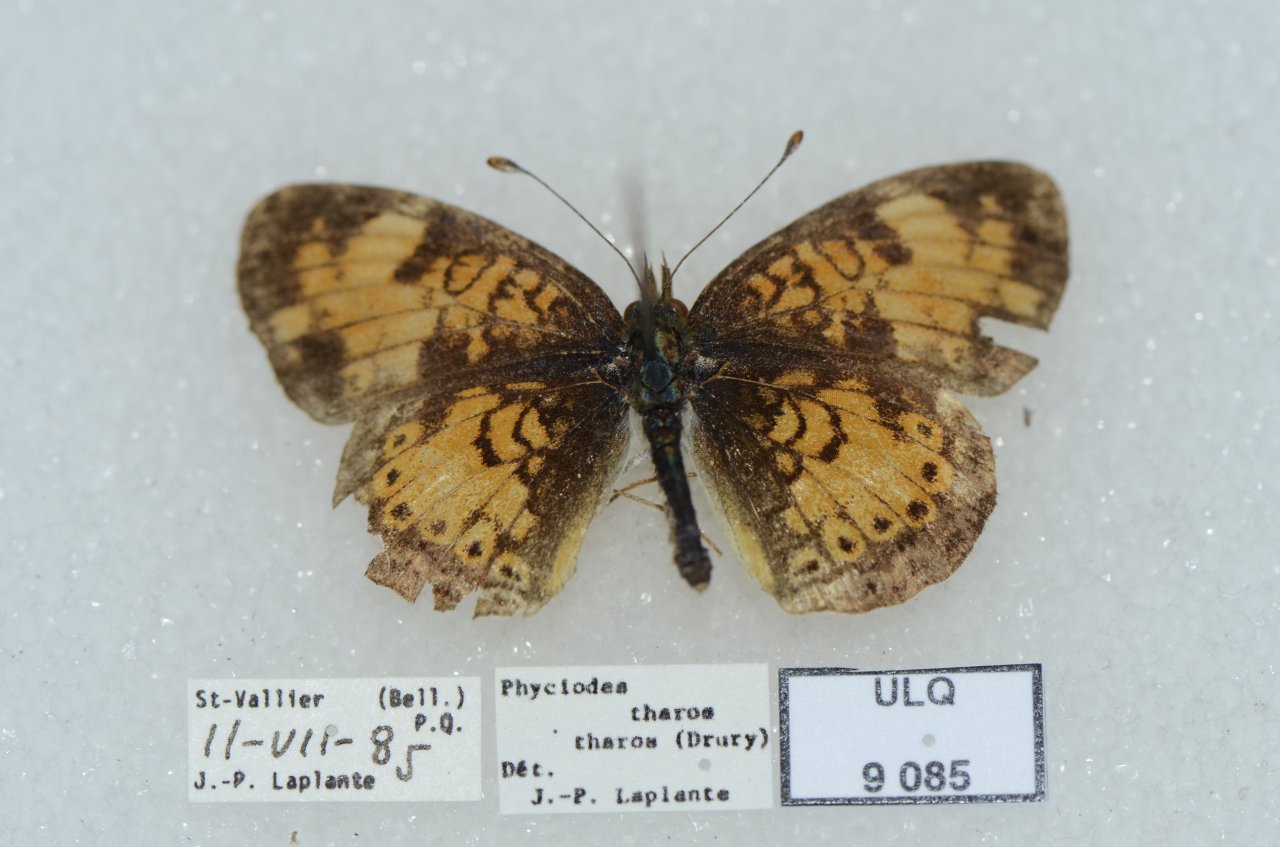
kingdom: Animalia
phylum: Arthropoda
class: Insecta
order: Lepidoptera
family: Nymphalidae
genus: Phyciodes
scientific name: Phyciodes tharos
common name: Northern Crescent
